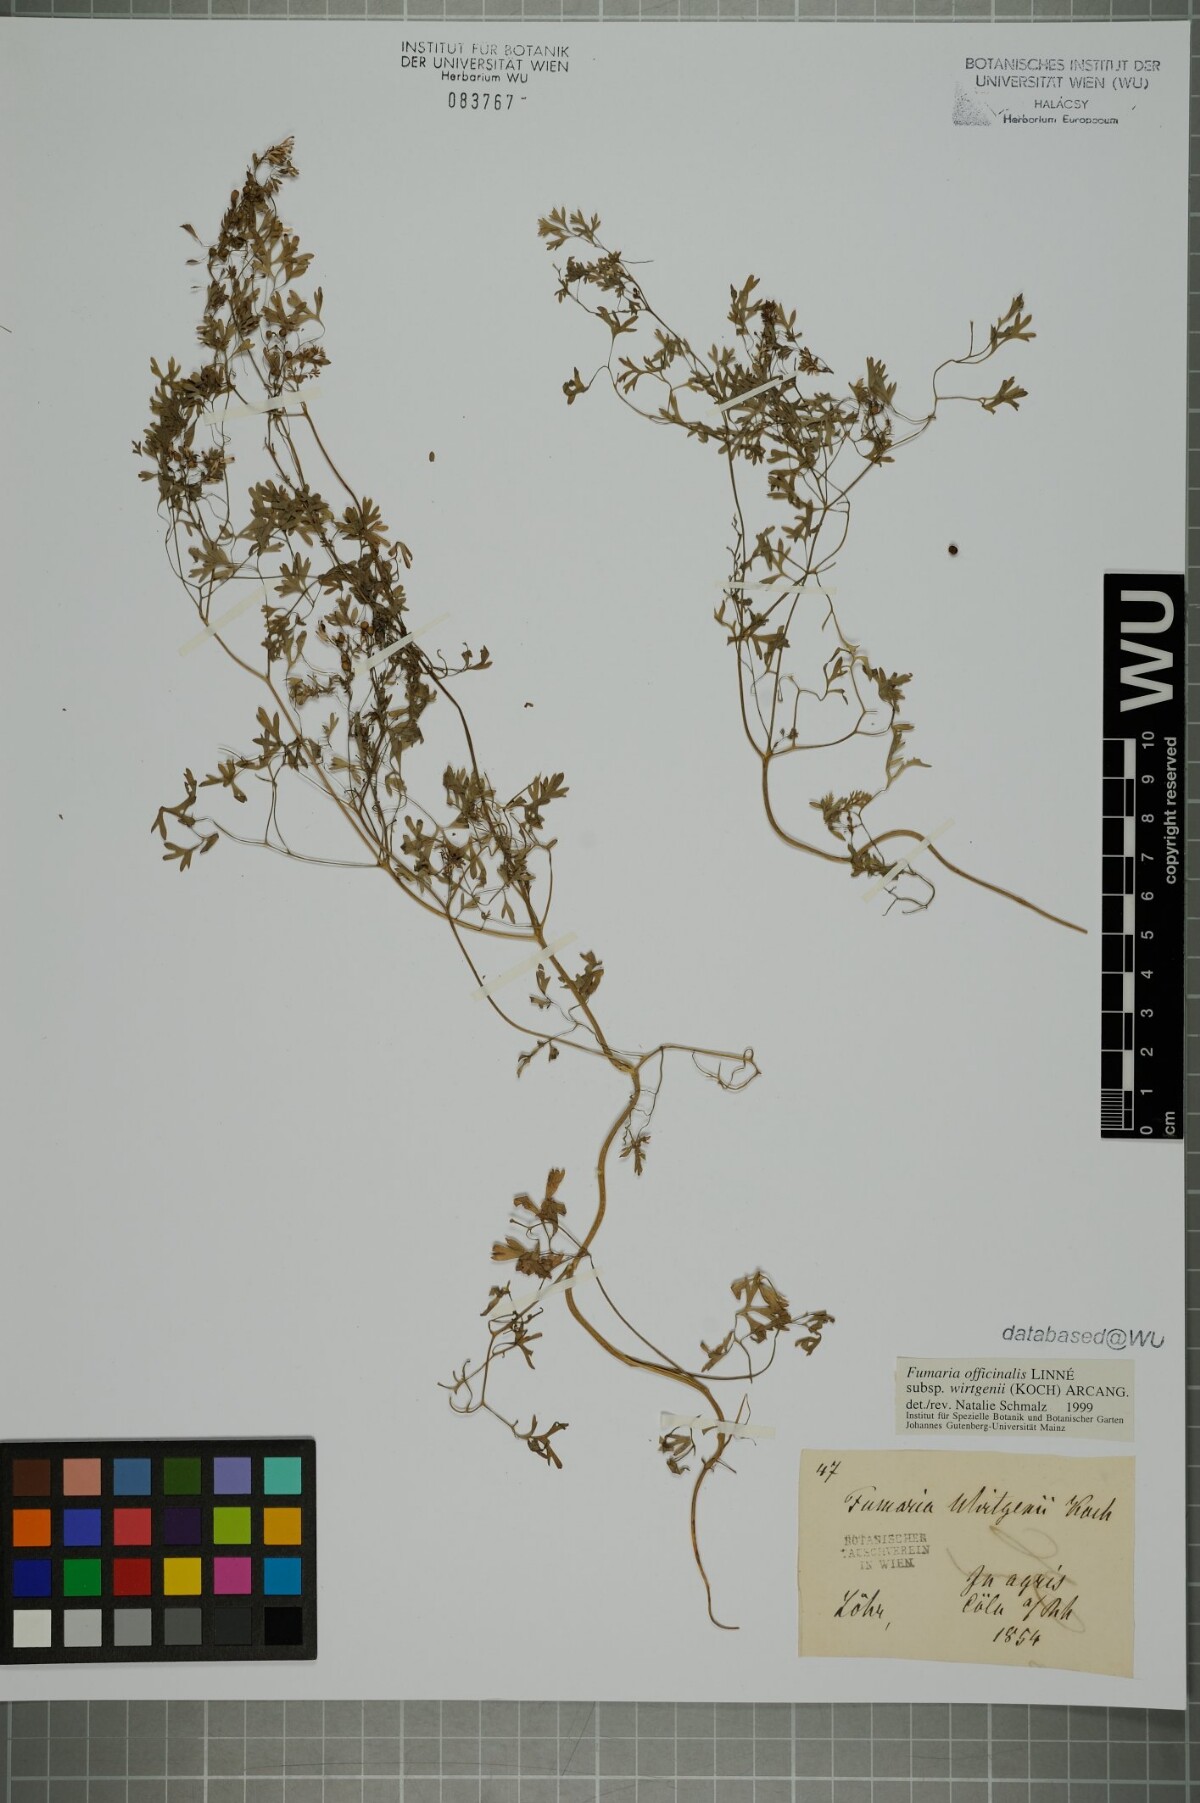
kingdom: Plantae
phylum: Tracheophyta
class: Magnoliopsida
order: Ranunculales
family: Papaveraceae
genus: Fumaria
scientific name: Fumaria wirtgenii
